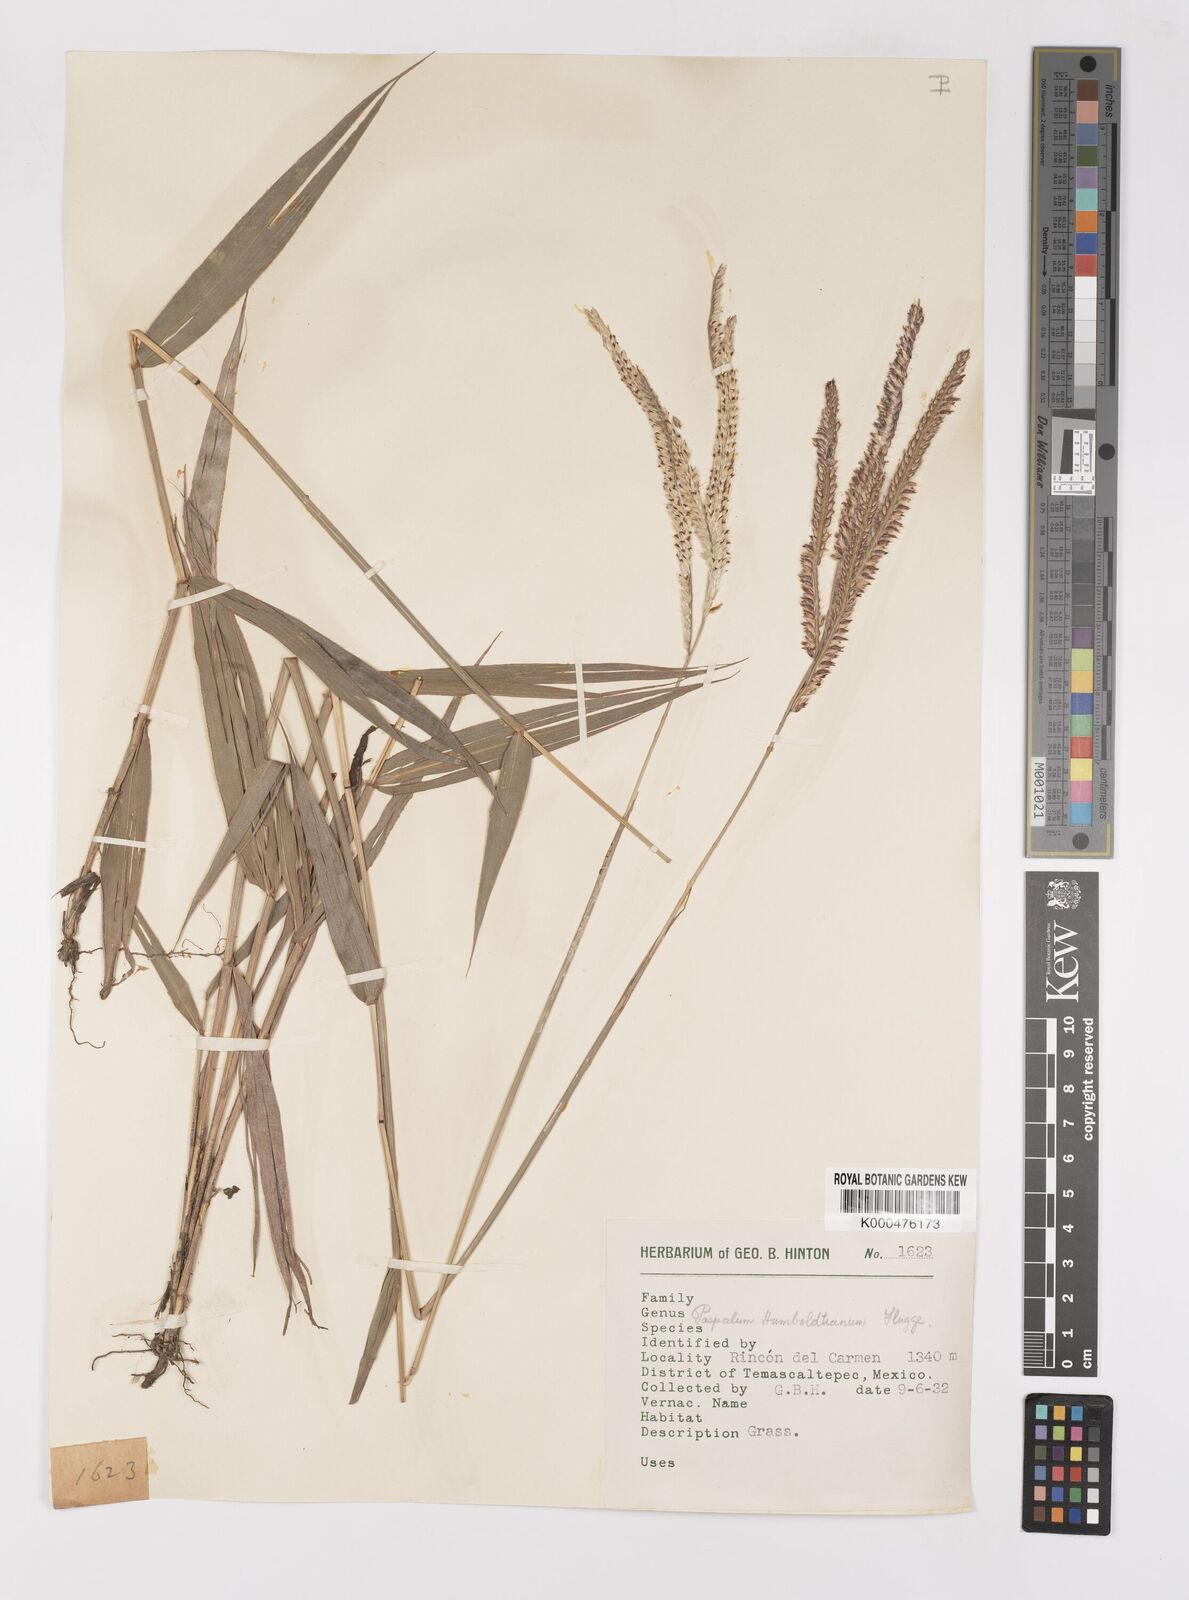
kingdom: Plantae
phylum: Tracheophyta
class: Liliopsida
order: Poales
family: Poaceae
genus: Paspalum
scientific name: Paspalum
